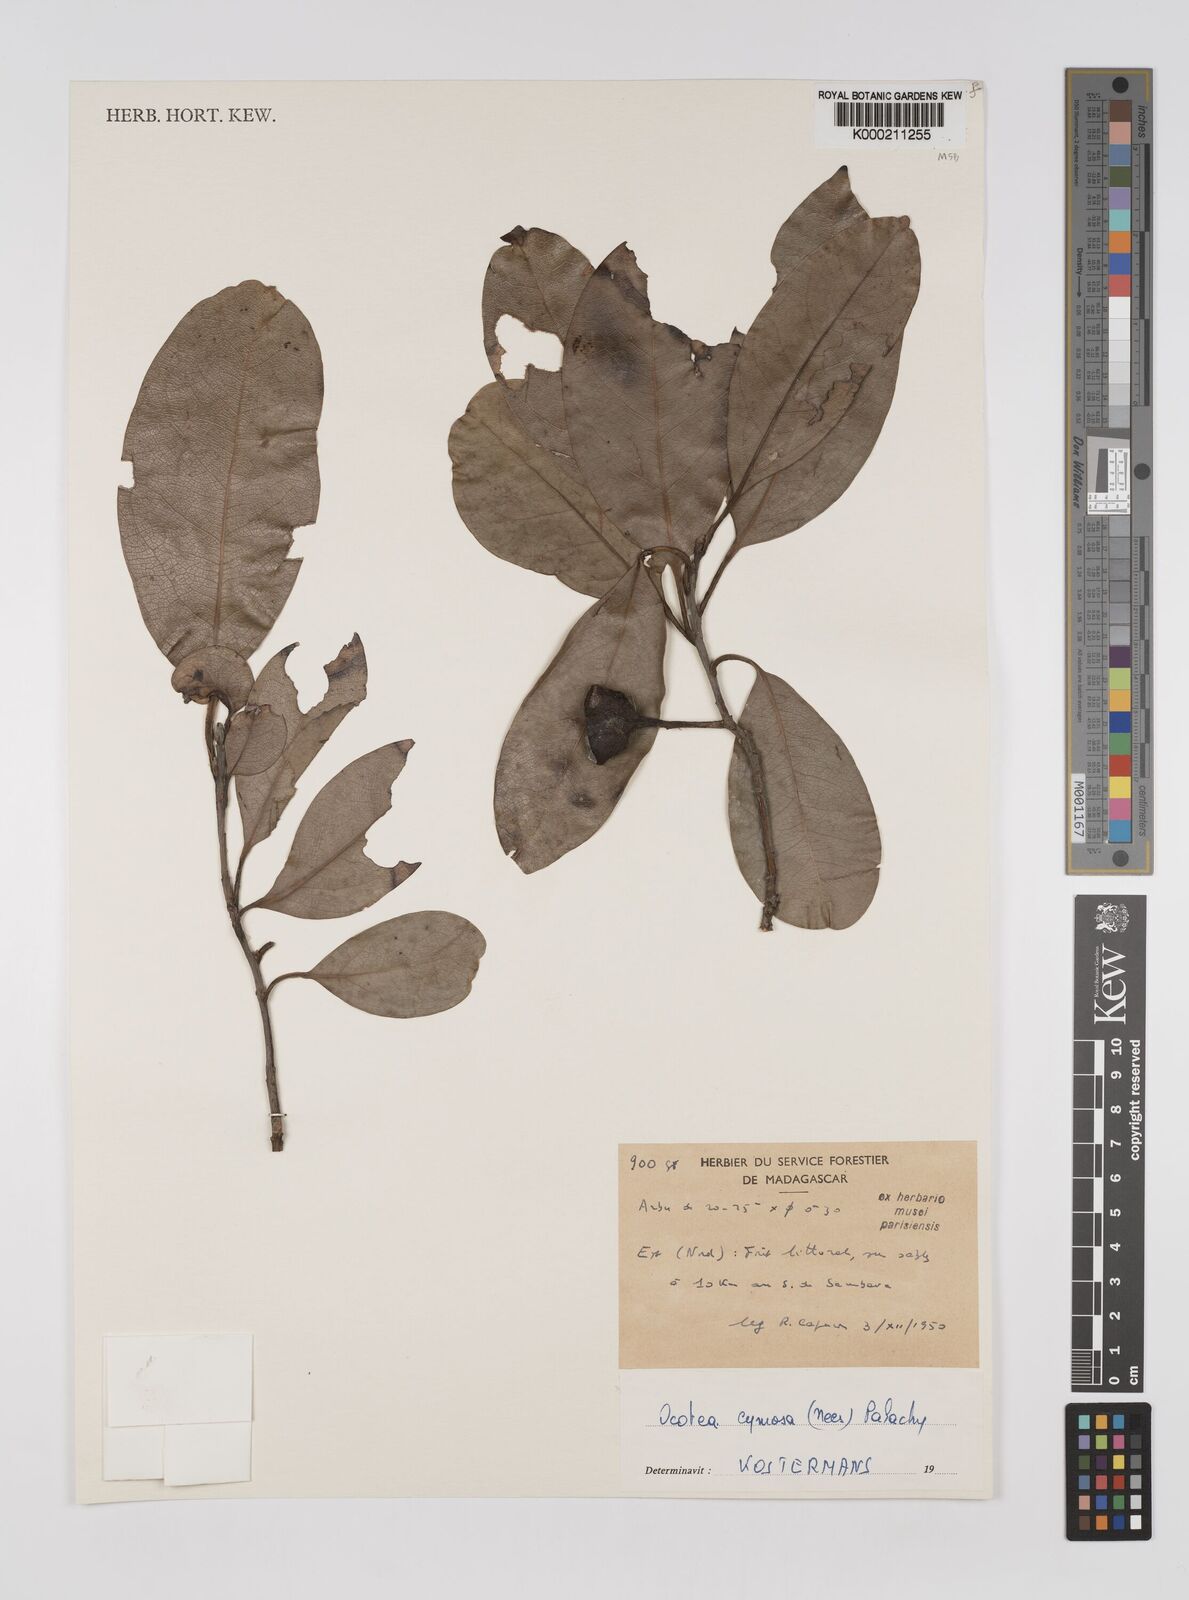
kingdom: Plantae
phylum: Tracheophyta
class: Magnoliopsida
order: Laurales
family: Lauraceae
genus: Mespilodaphne
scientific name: Mespilodaphne cymosa
